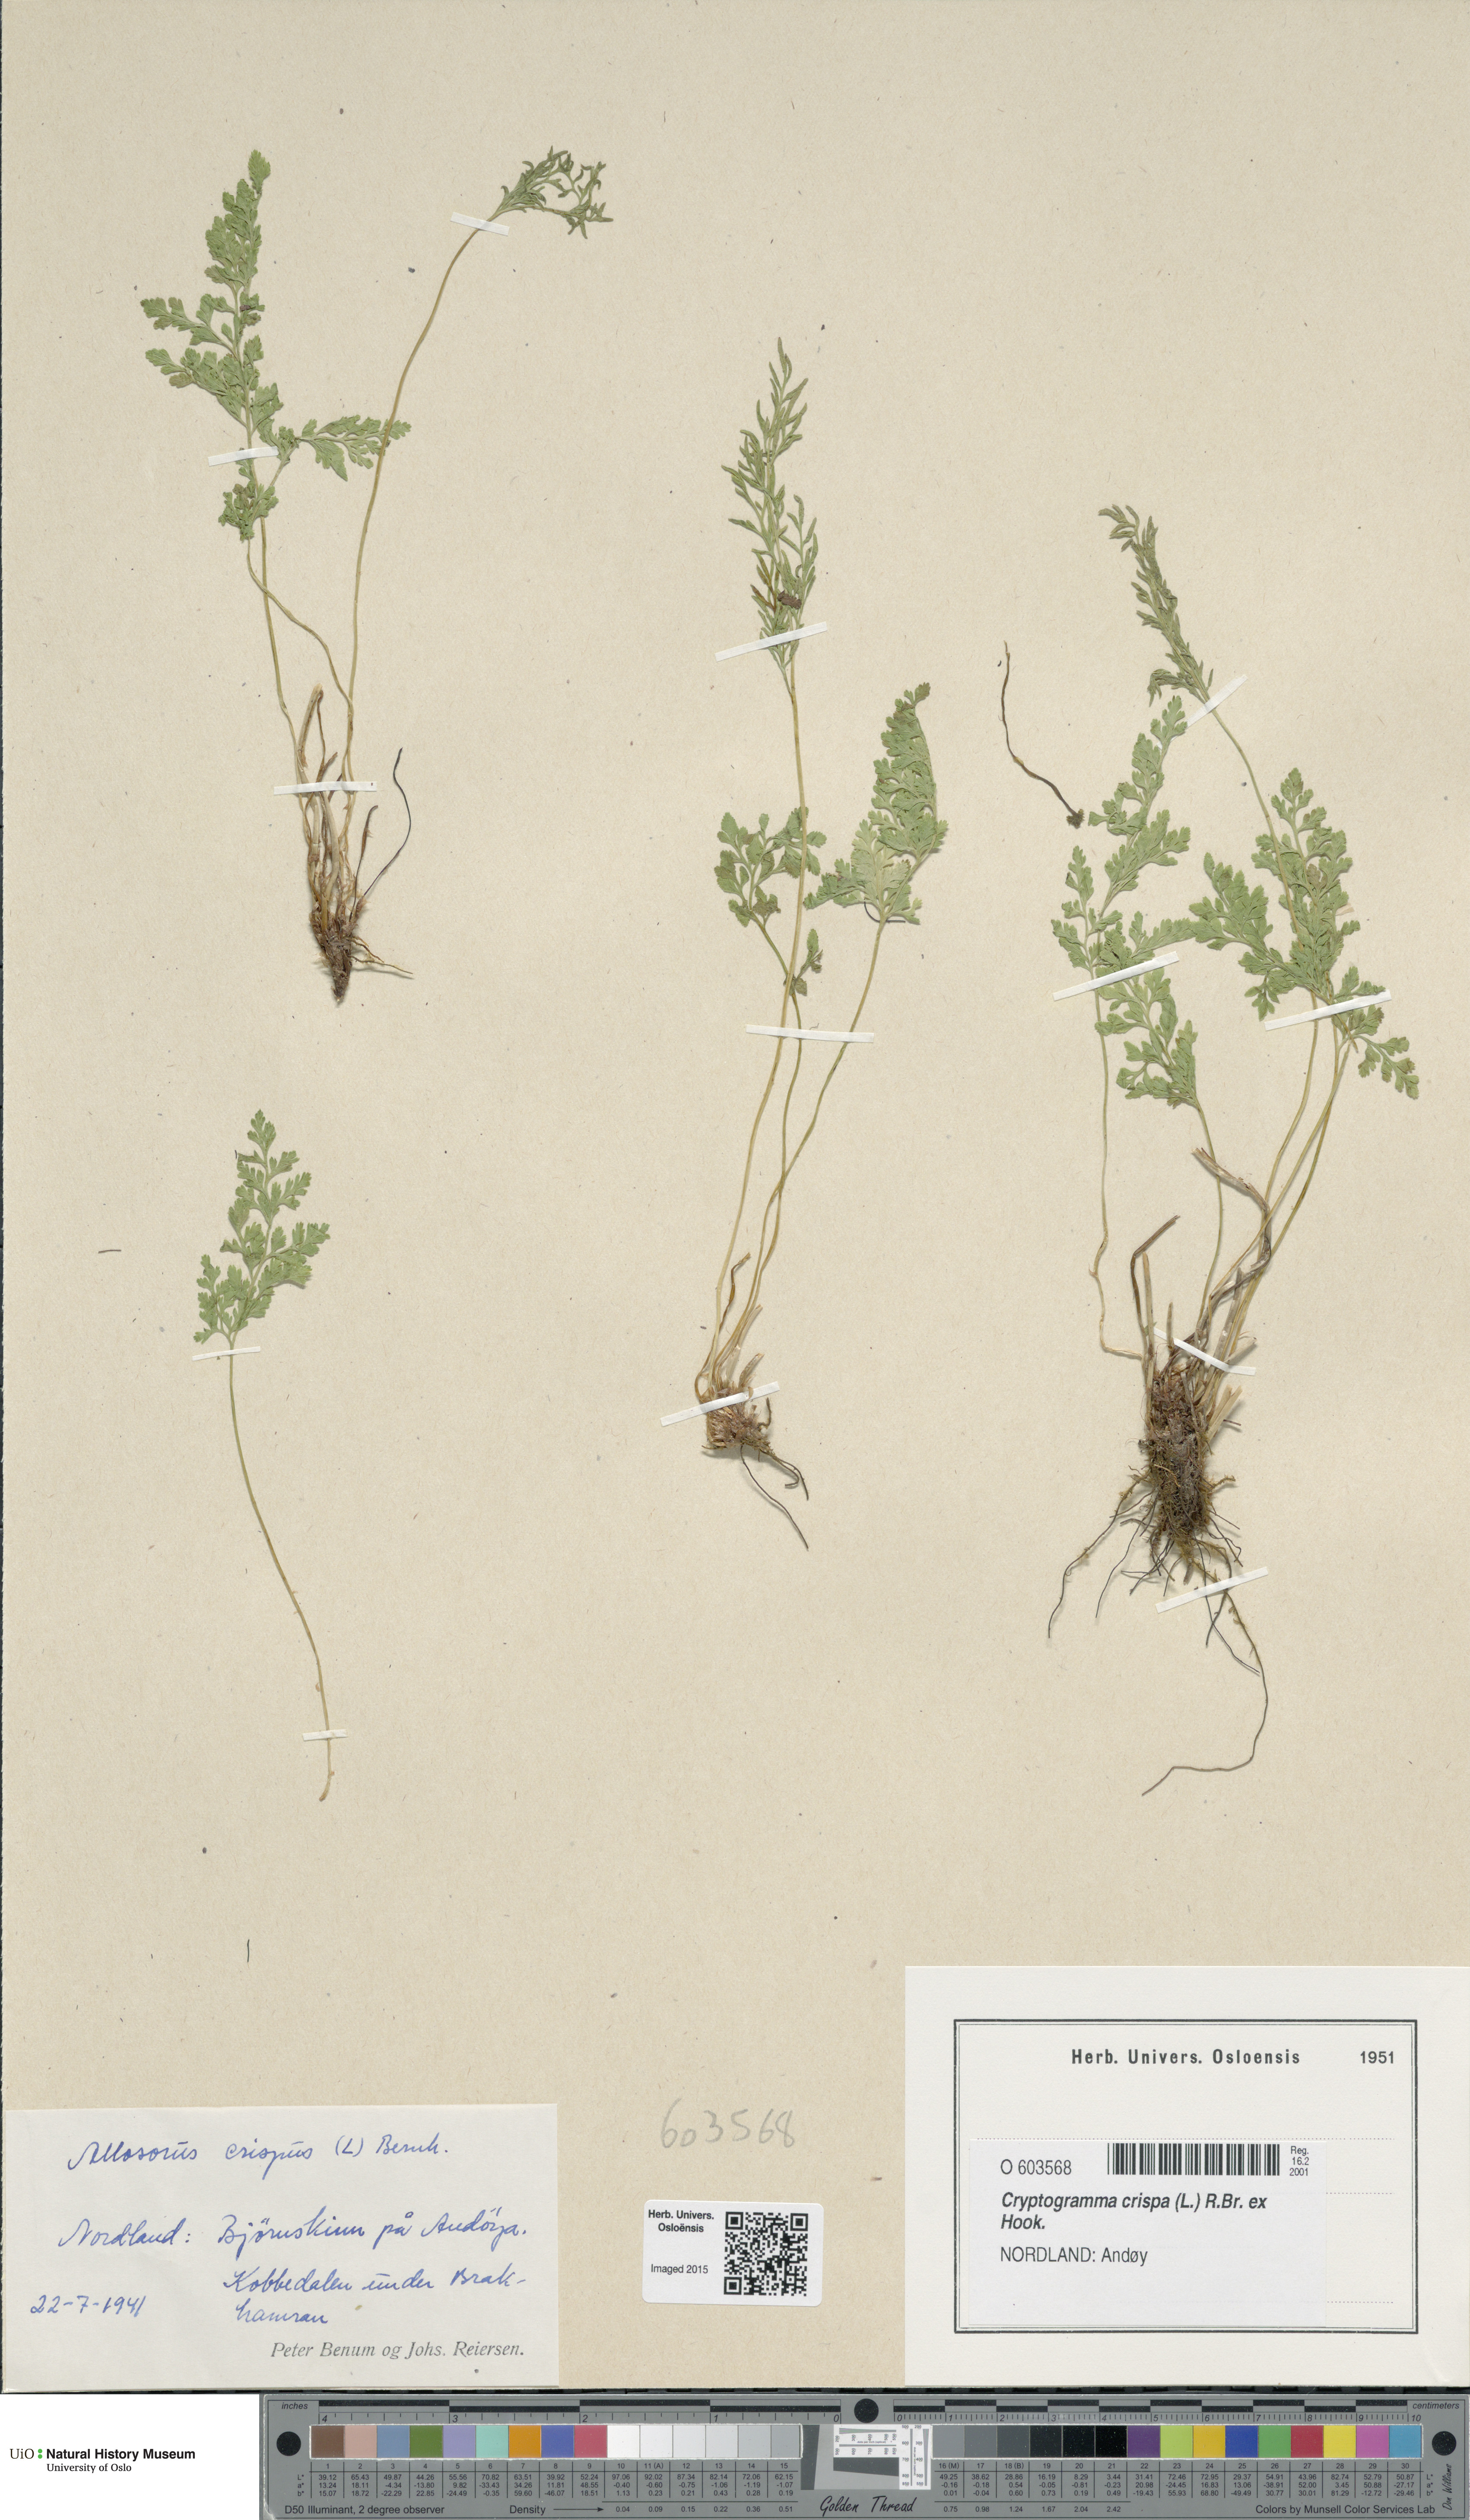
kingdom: Plantae
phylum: Tracheophyta
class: Polypodiopsida
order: Polypodiales
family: Pteridaceae
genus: Cryptogramma
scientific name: Cryptogramma crispa
